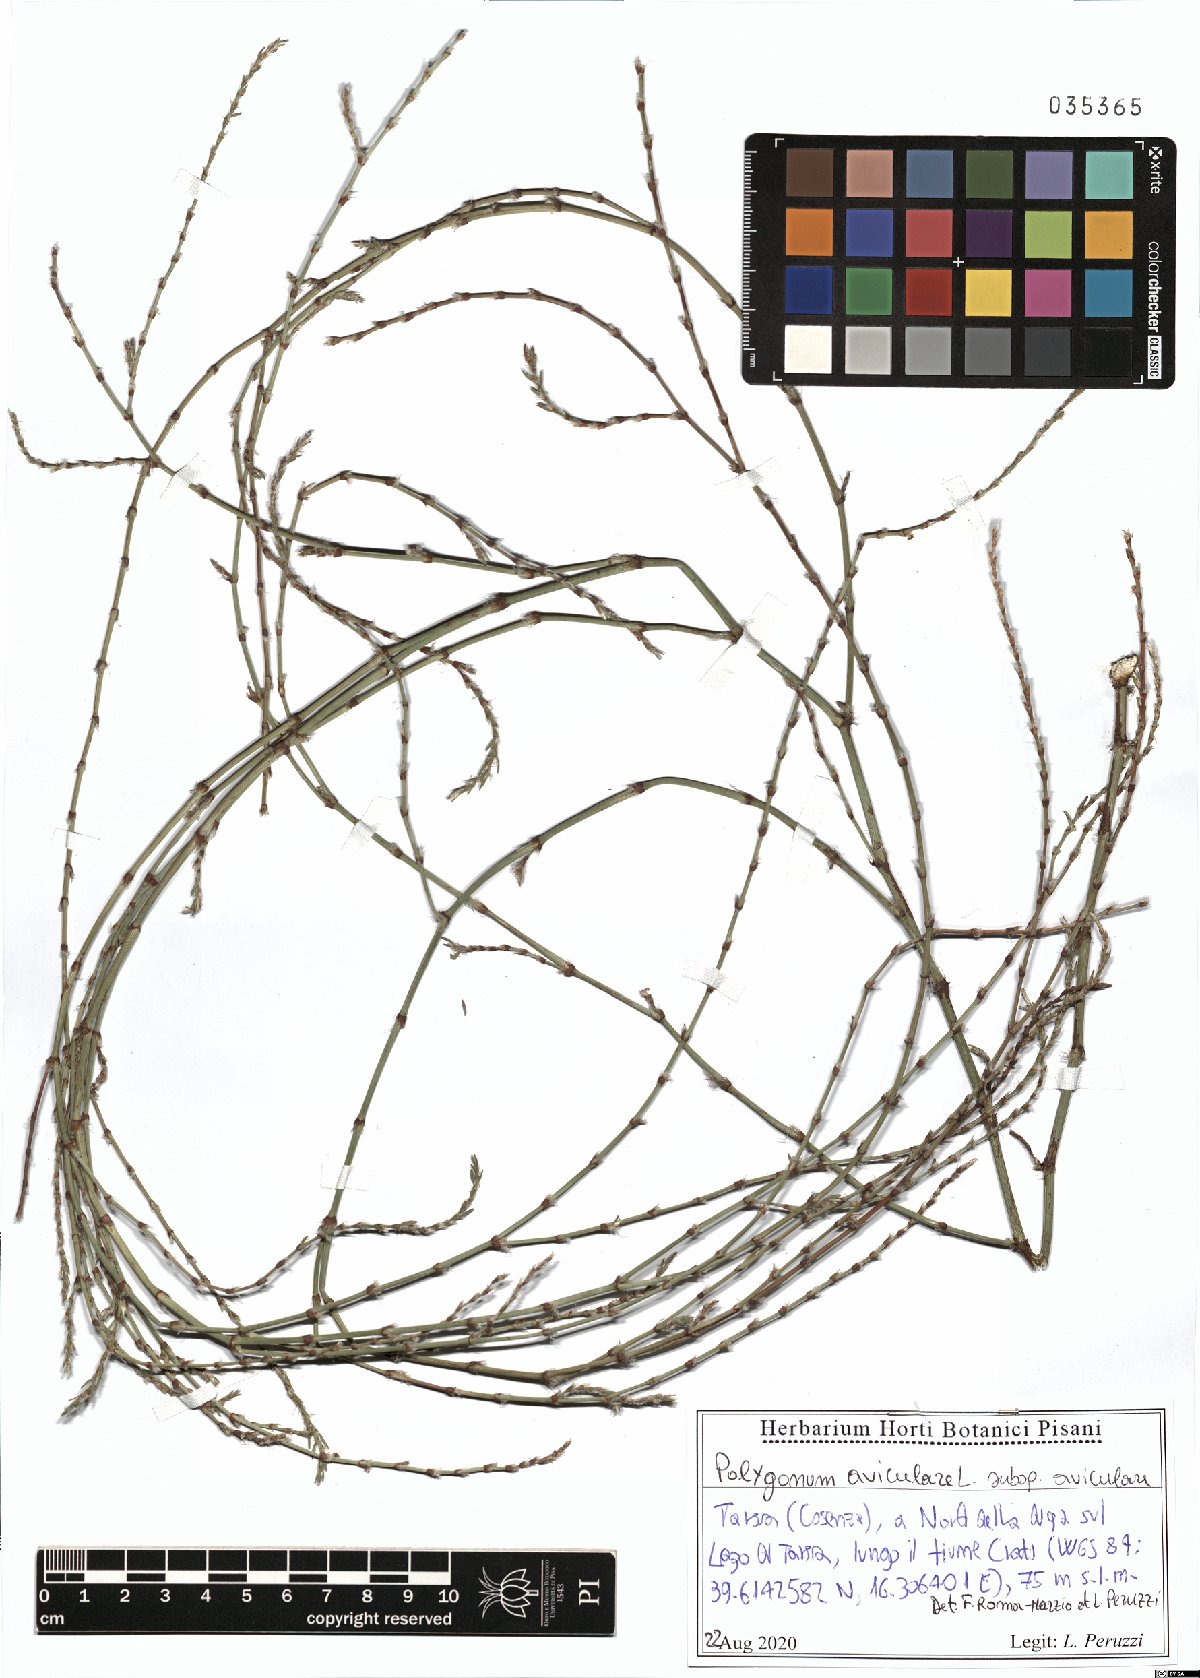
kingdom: Plantae
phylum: Tracheophyta
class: Magnoliopsida
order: Caryophyllales
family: Polygonaceae
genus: Polygonum
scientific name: Polygonum aviculare
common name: Prostrate knotweed
